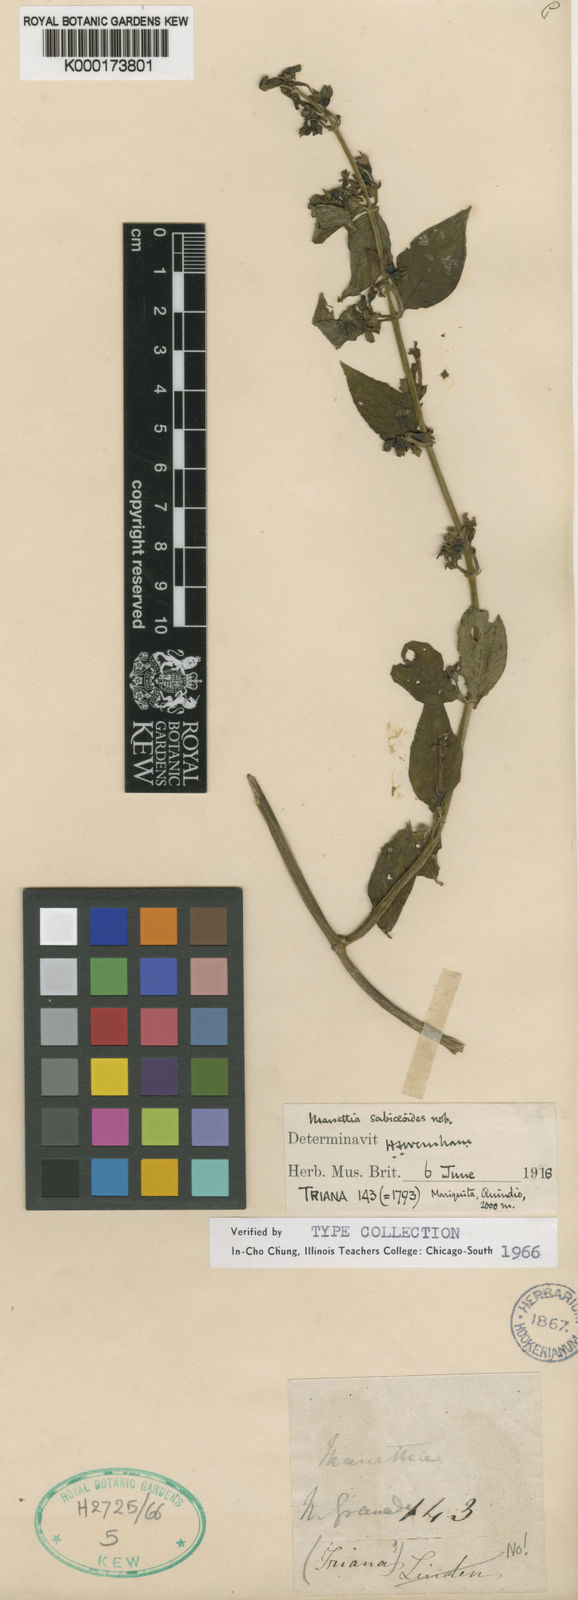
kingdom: Plantae
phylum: Tracheophyta
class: Magnoliopsida
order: Gentianales
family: Rubiaceae
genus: Manettia
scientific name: Manettia sabiceoides
